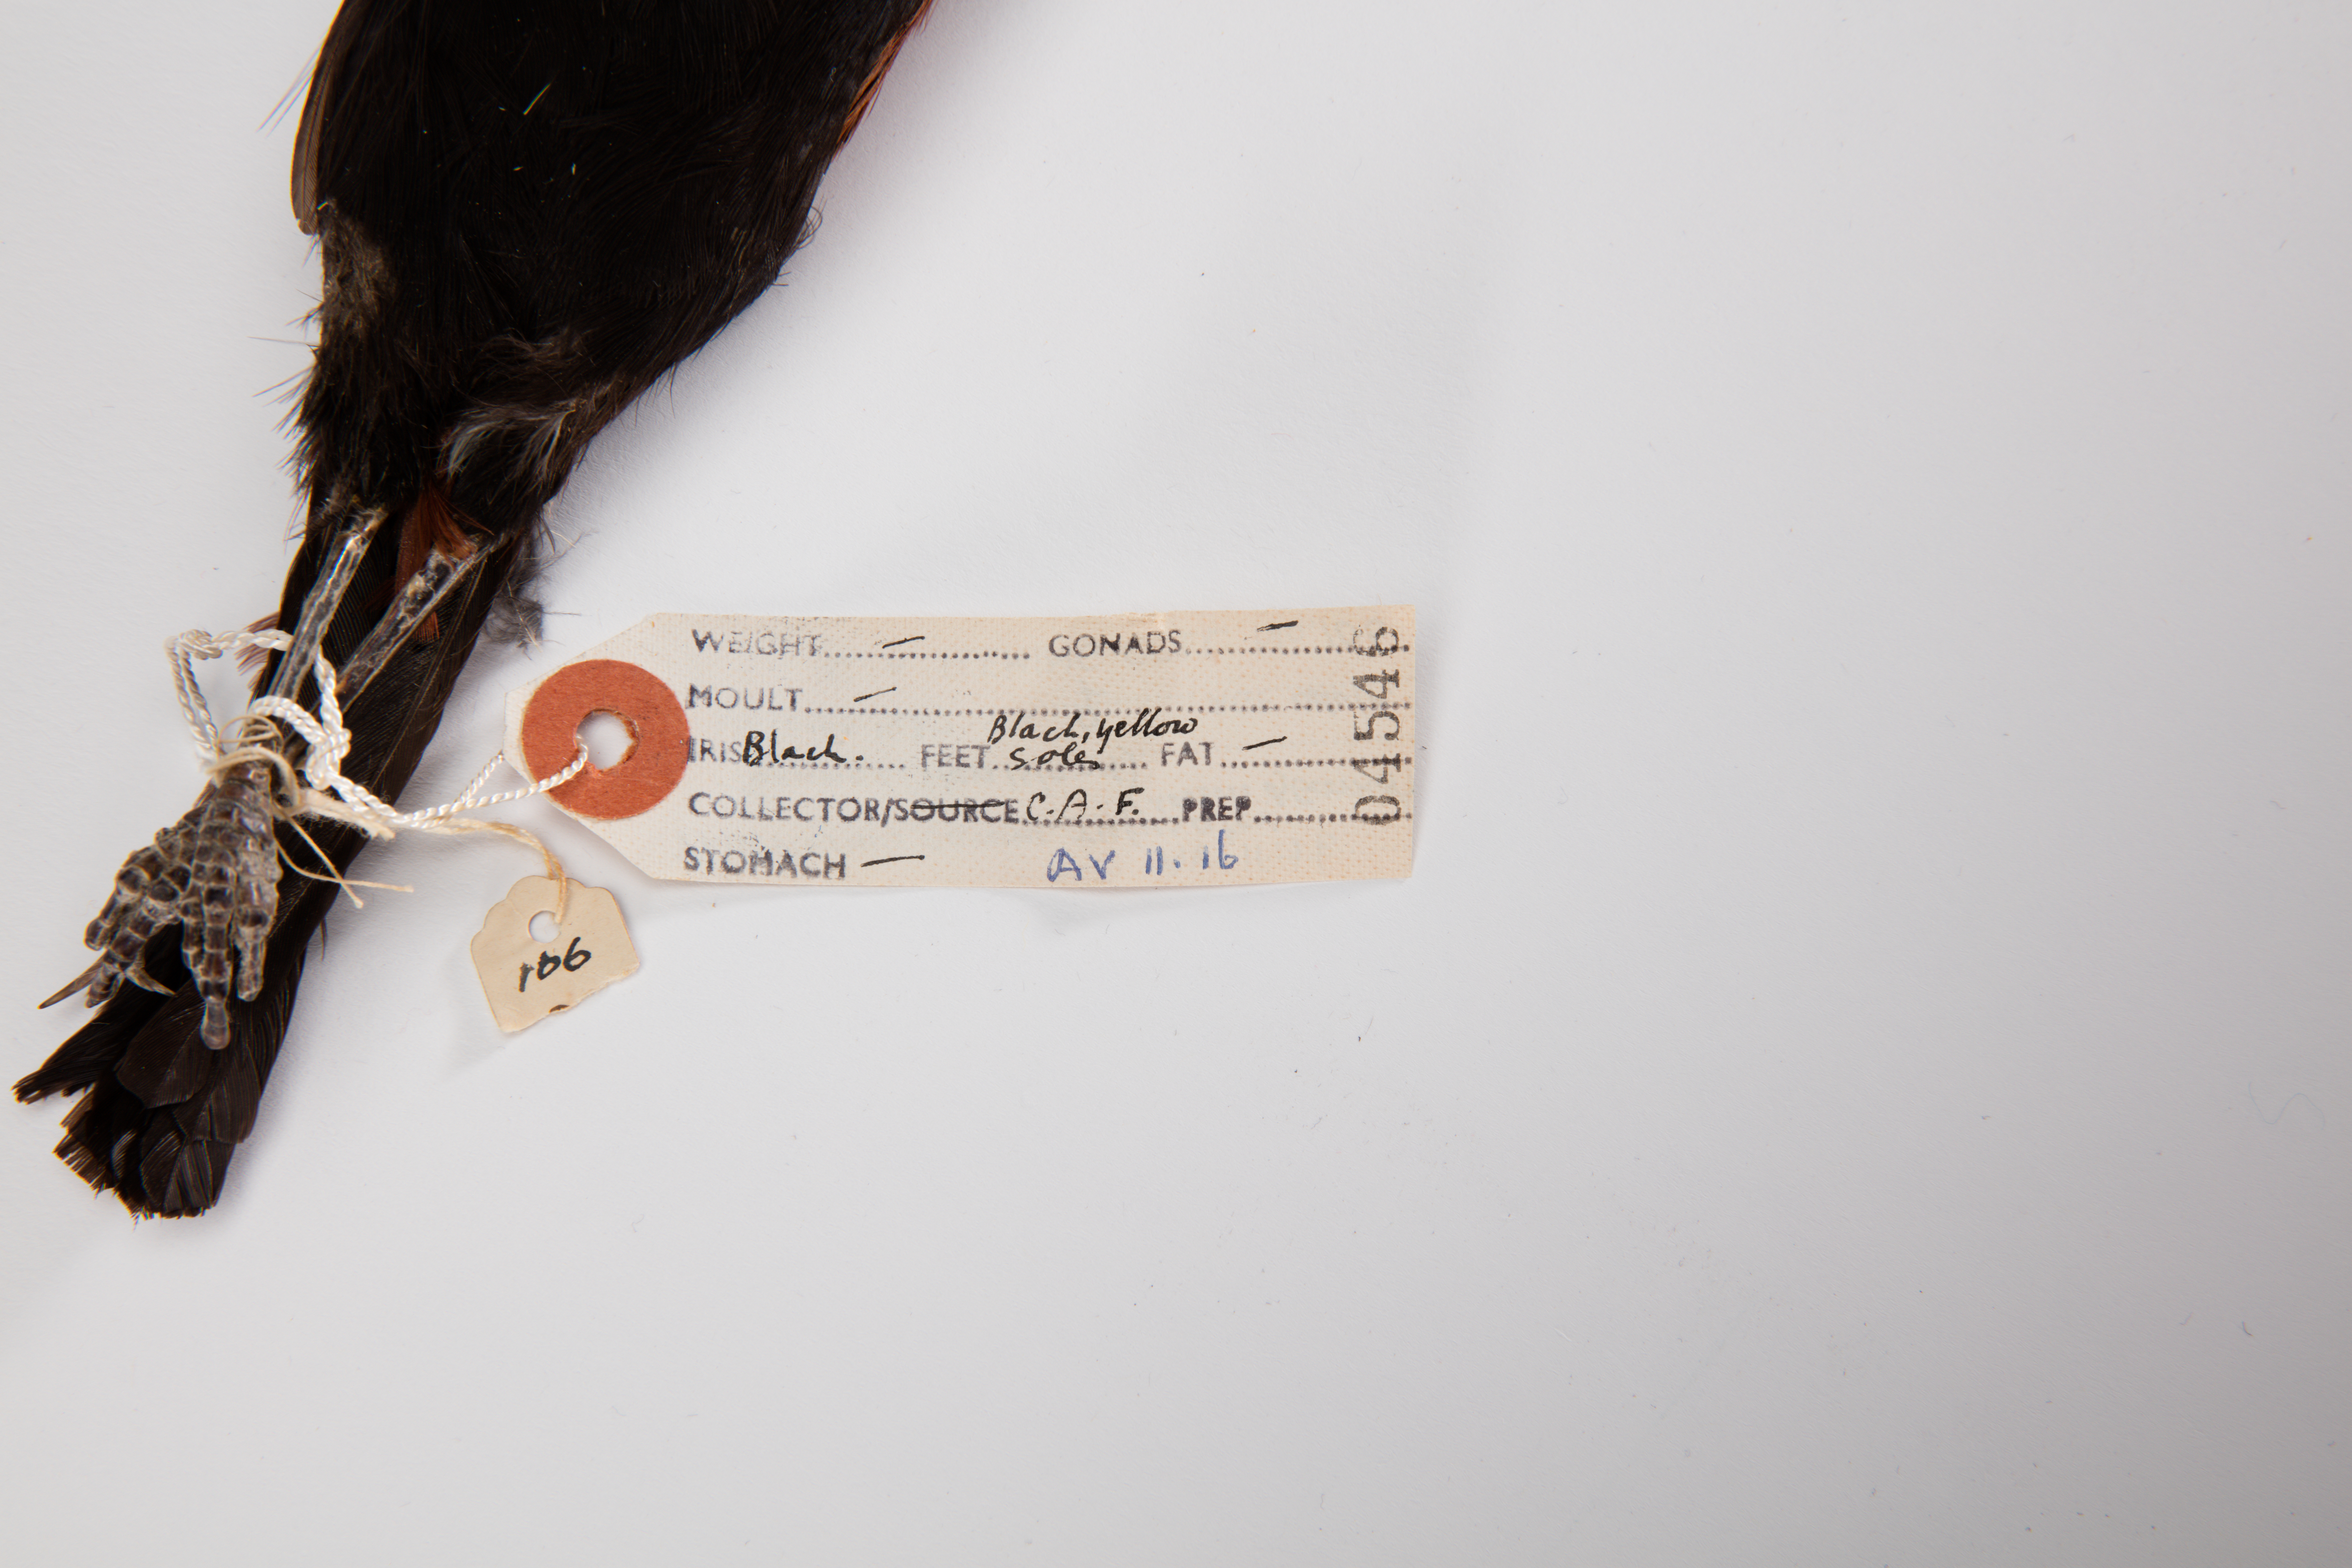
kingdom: Animalia
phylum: Chordata
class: Aves
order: Passeriformes
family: Callaeatidae
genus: Philesturnus
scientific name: Philesturnus carunculatus
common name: South island saddleback
